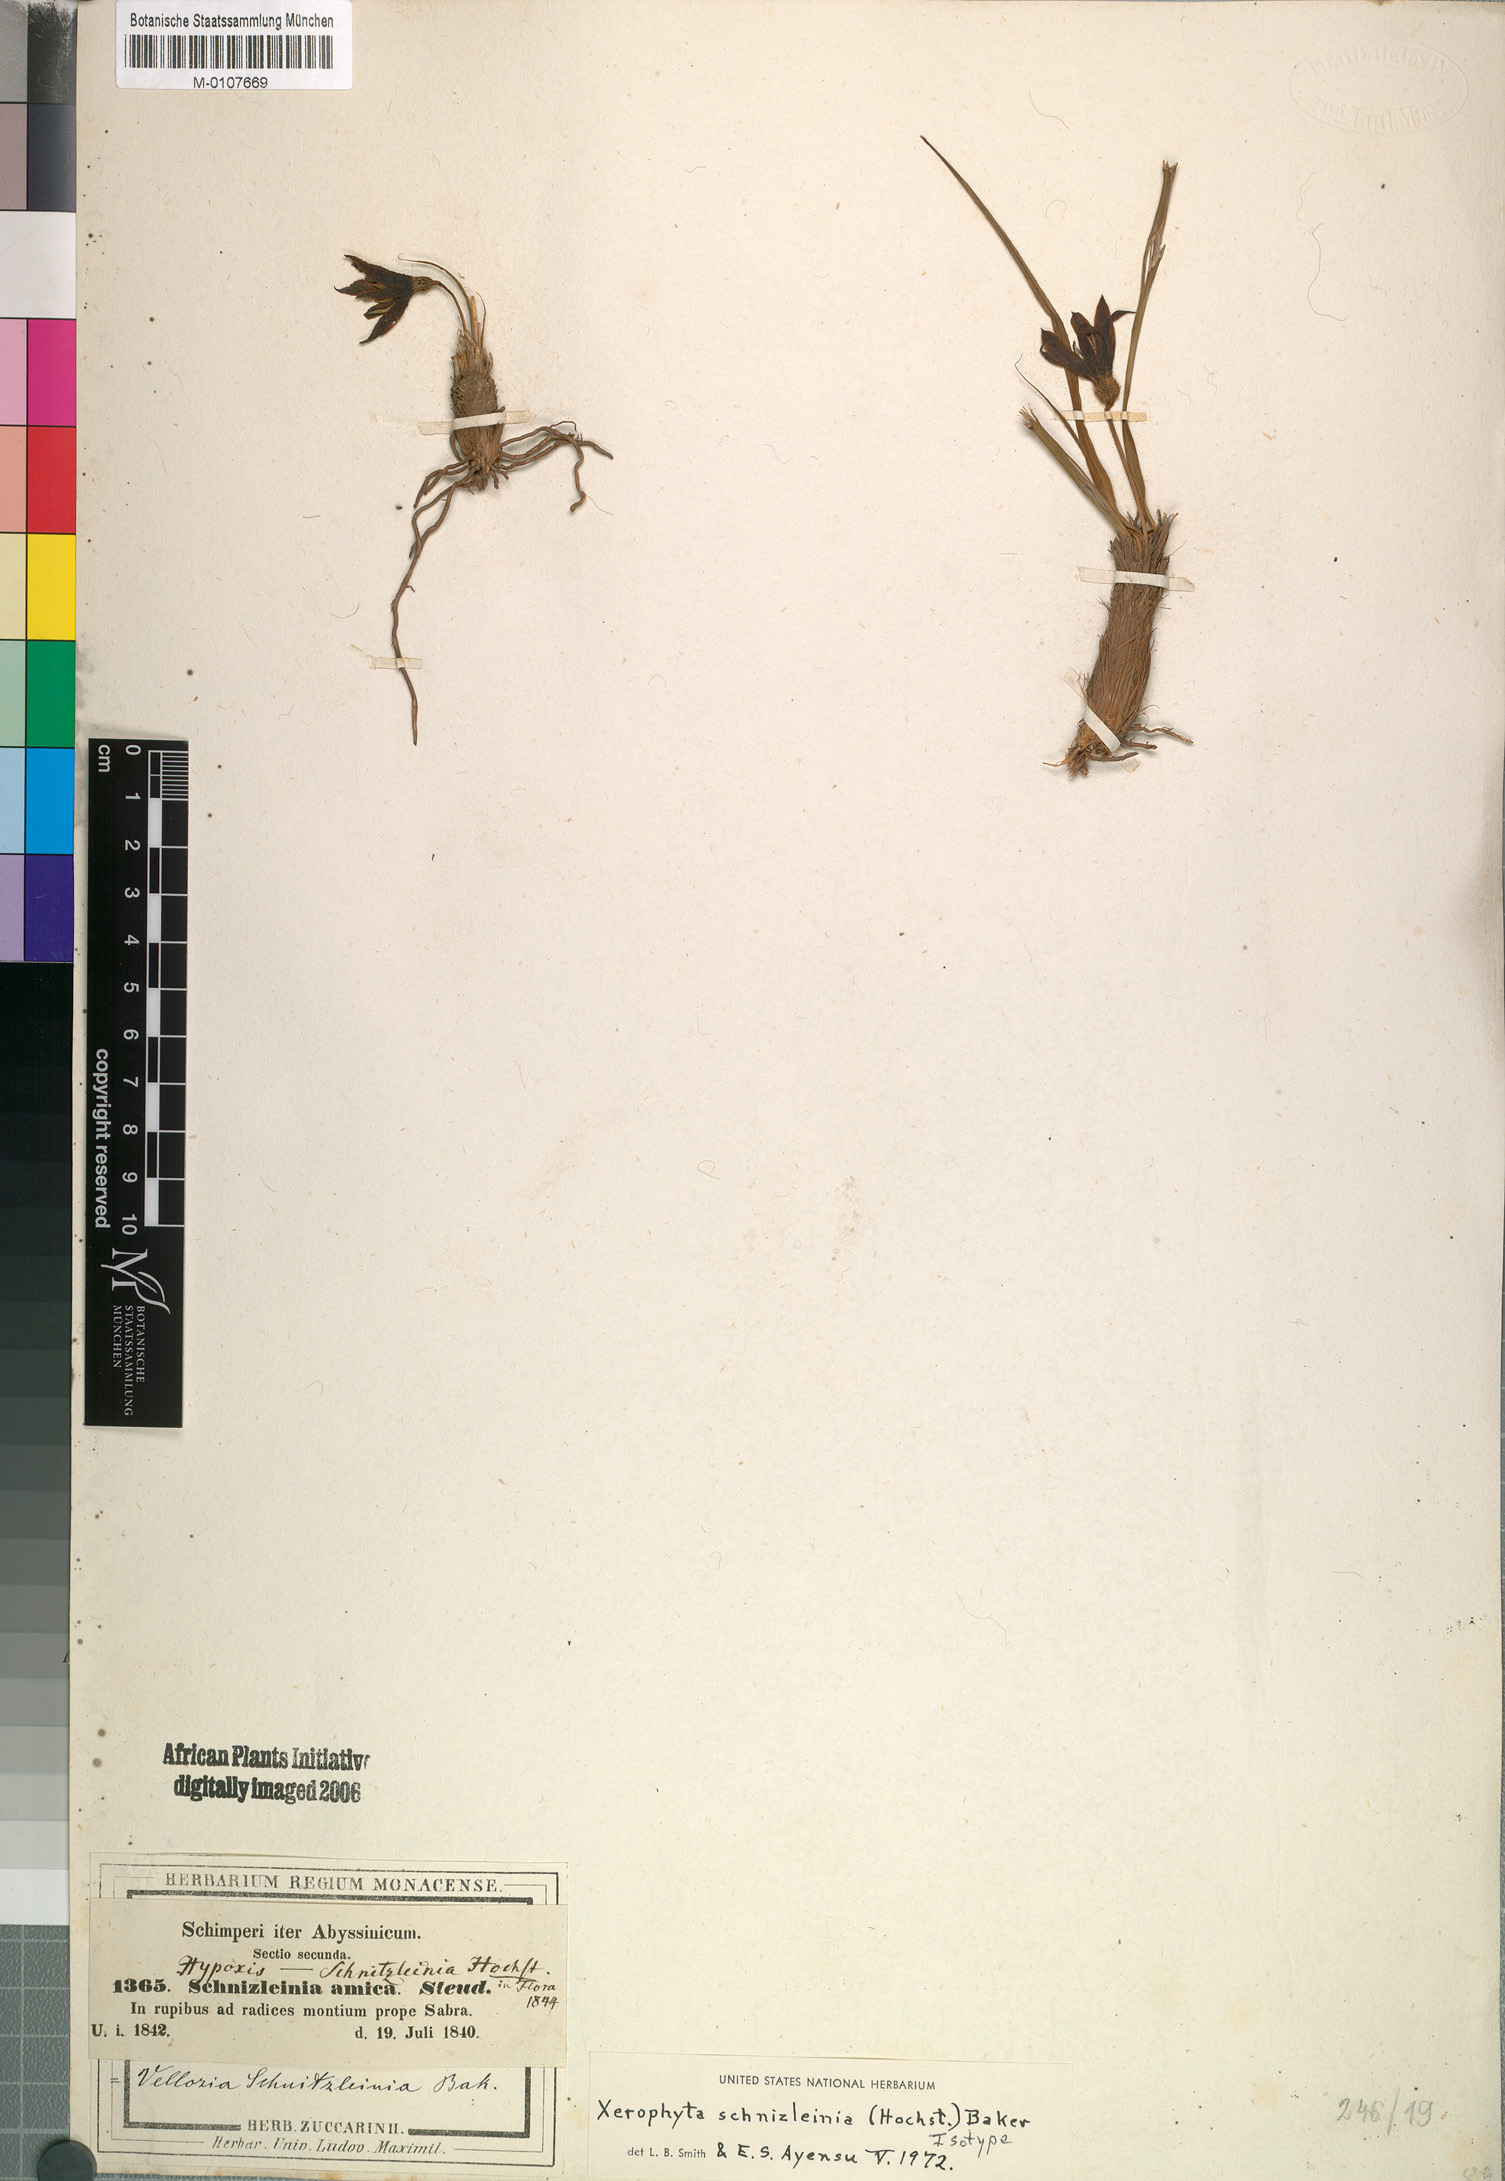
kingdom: Plantae
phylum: Tracheophyta
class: Liliopsida
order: Pandanales
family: Velloziaceae
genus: Xerophyta
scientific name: Xerophyta schnizleinia
